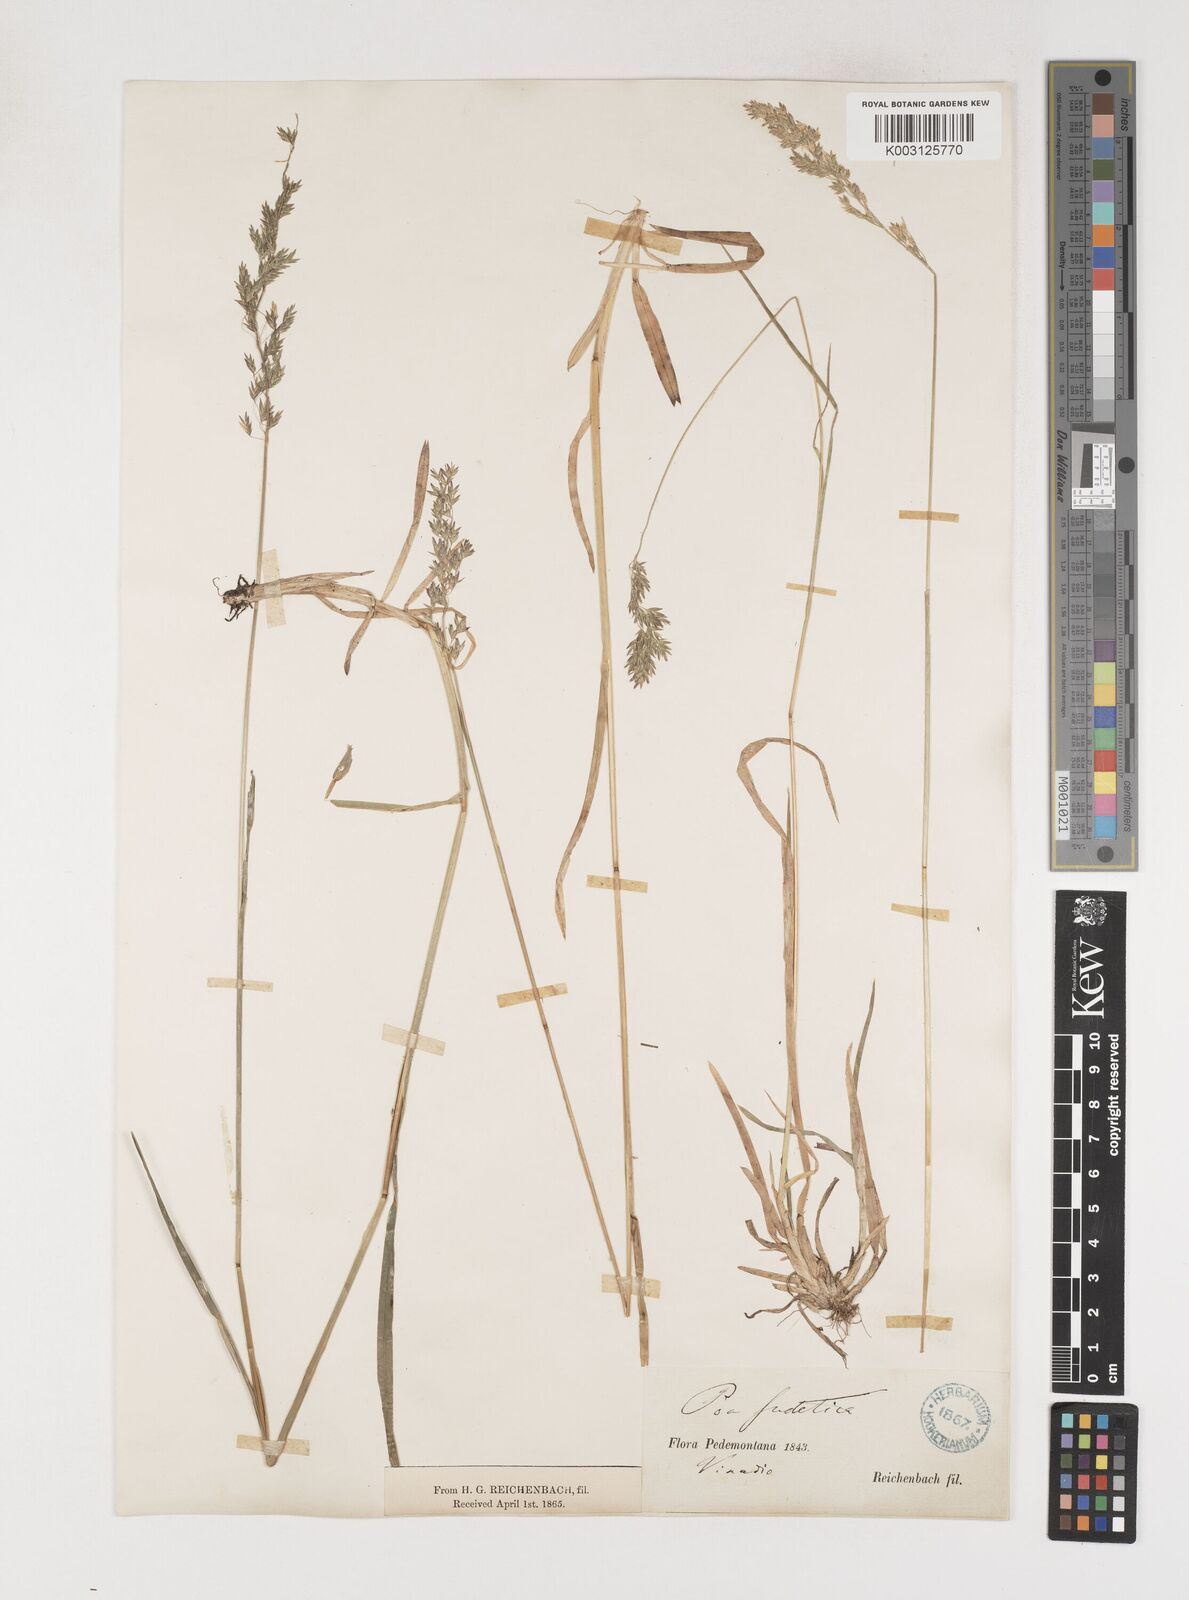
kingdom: Plantae
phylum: Tracheophyta
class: Liliopsida
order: Poales
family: Poaceae
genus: Poa
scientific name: Poa chaixii
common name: Broad-leaved meadow-grass
